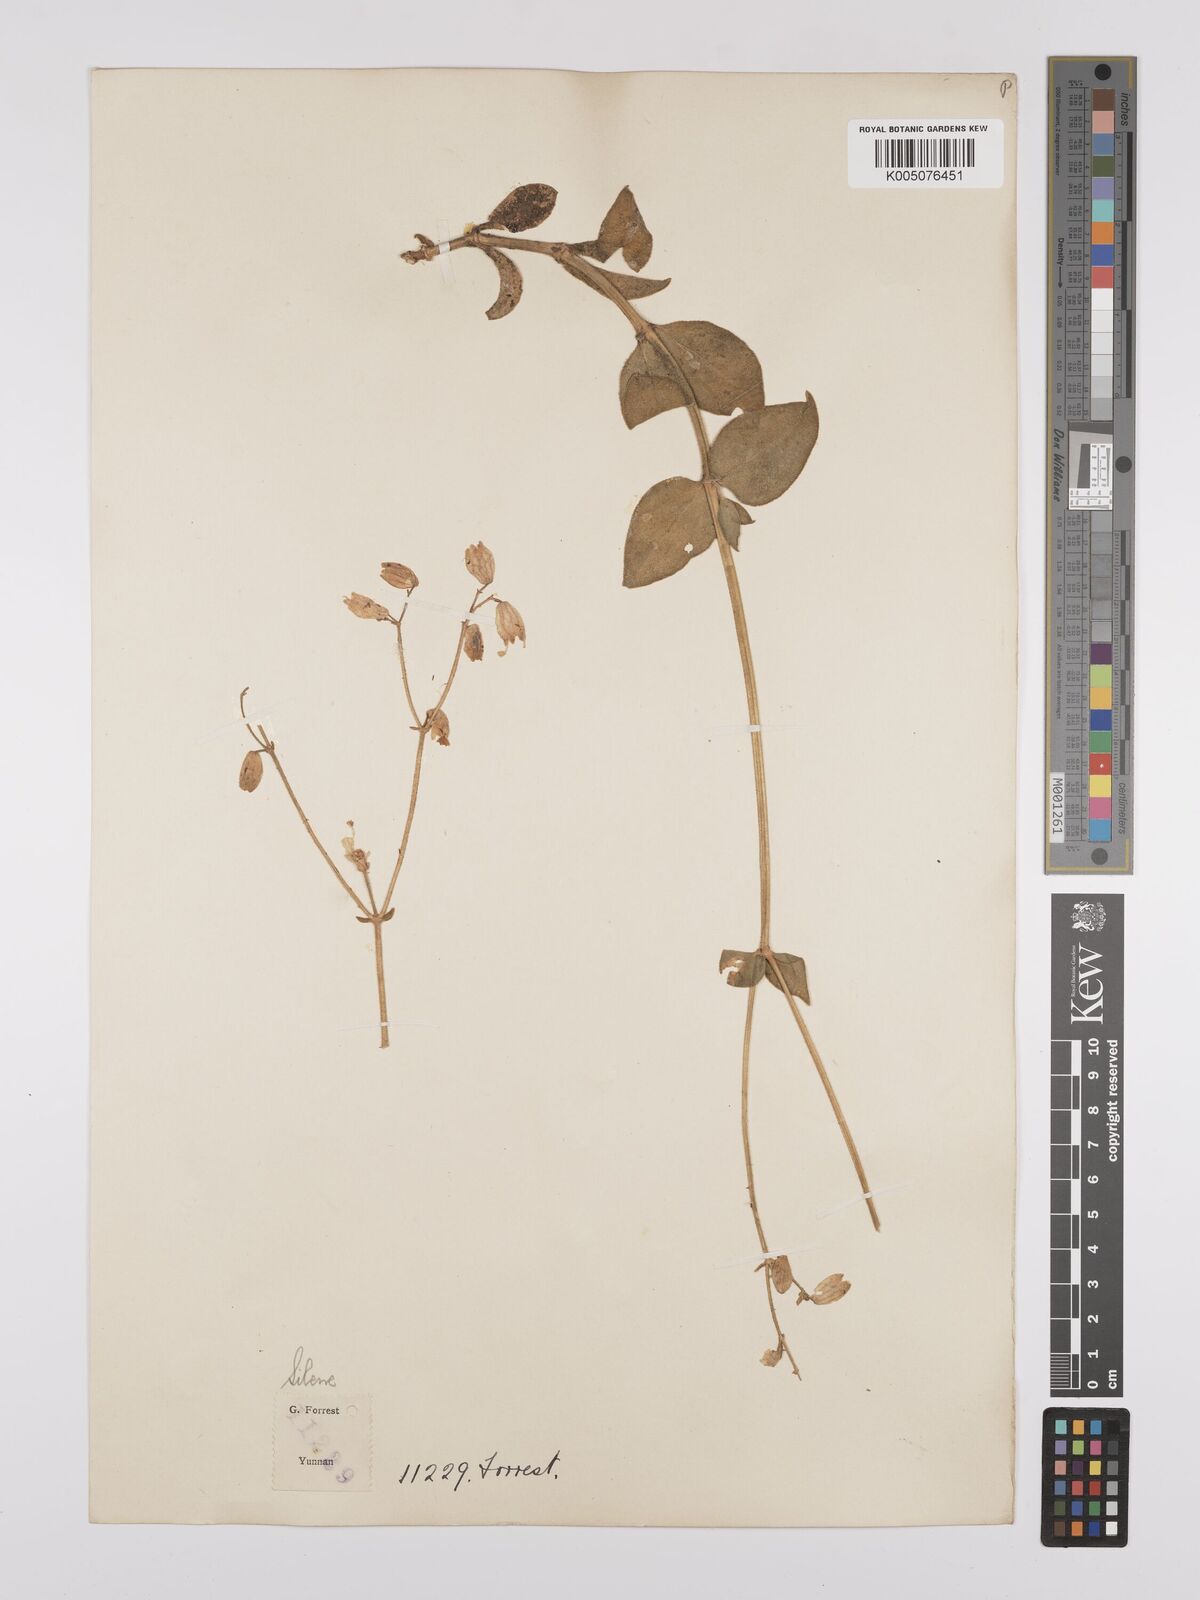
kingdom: Plantae
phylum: Tracheophyta
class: Magnoliopsida
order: Caryophyllales
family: Caryophyllaceae
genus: Silene
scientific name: Silene
